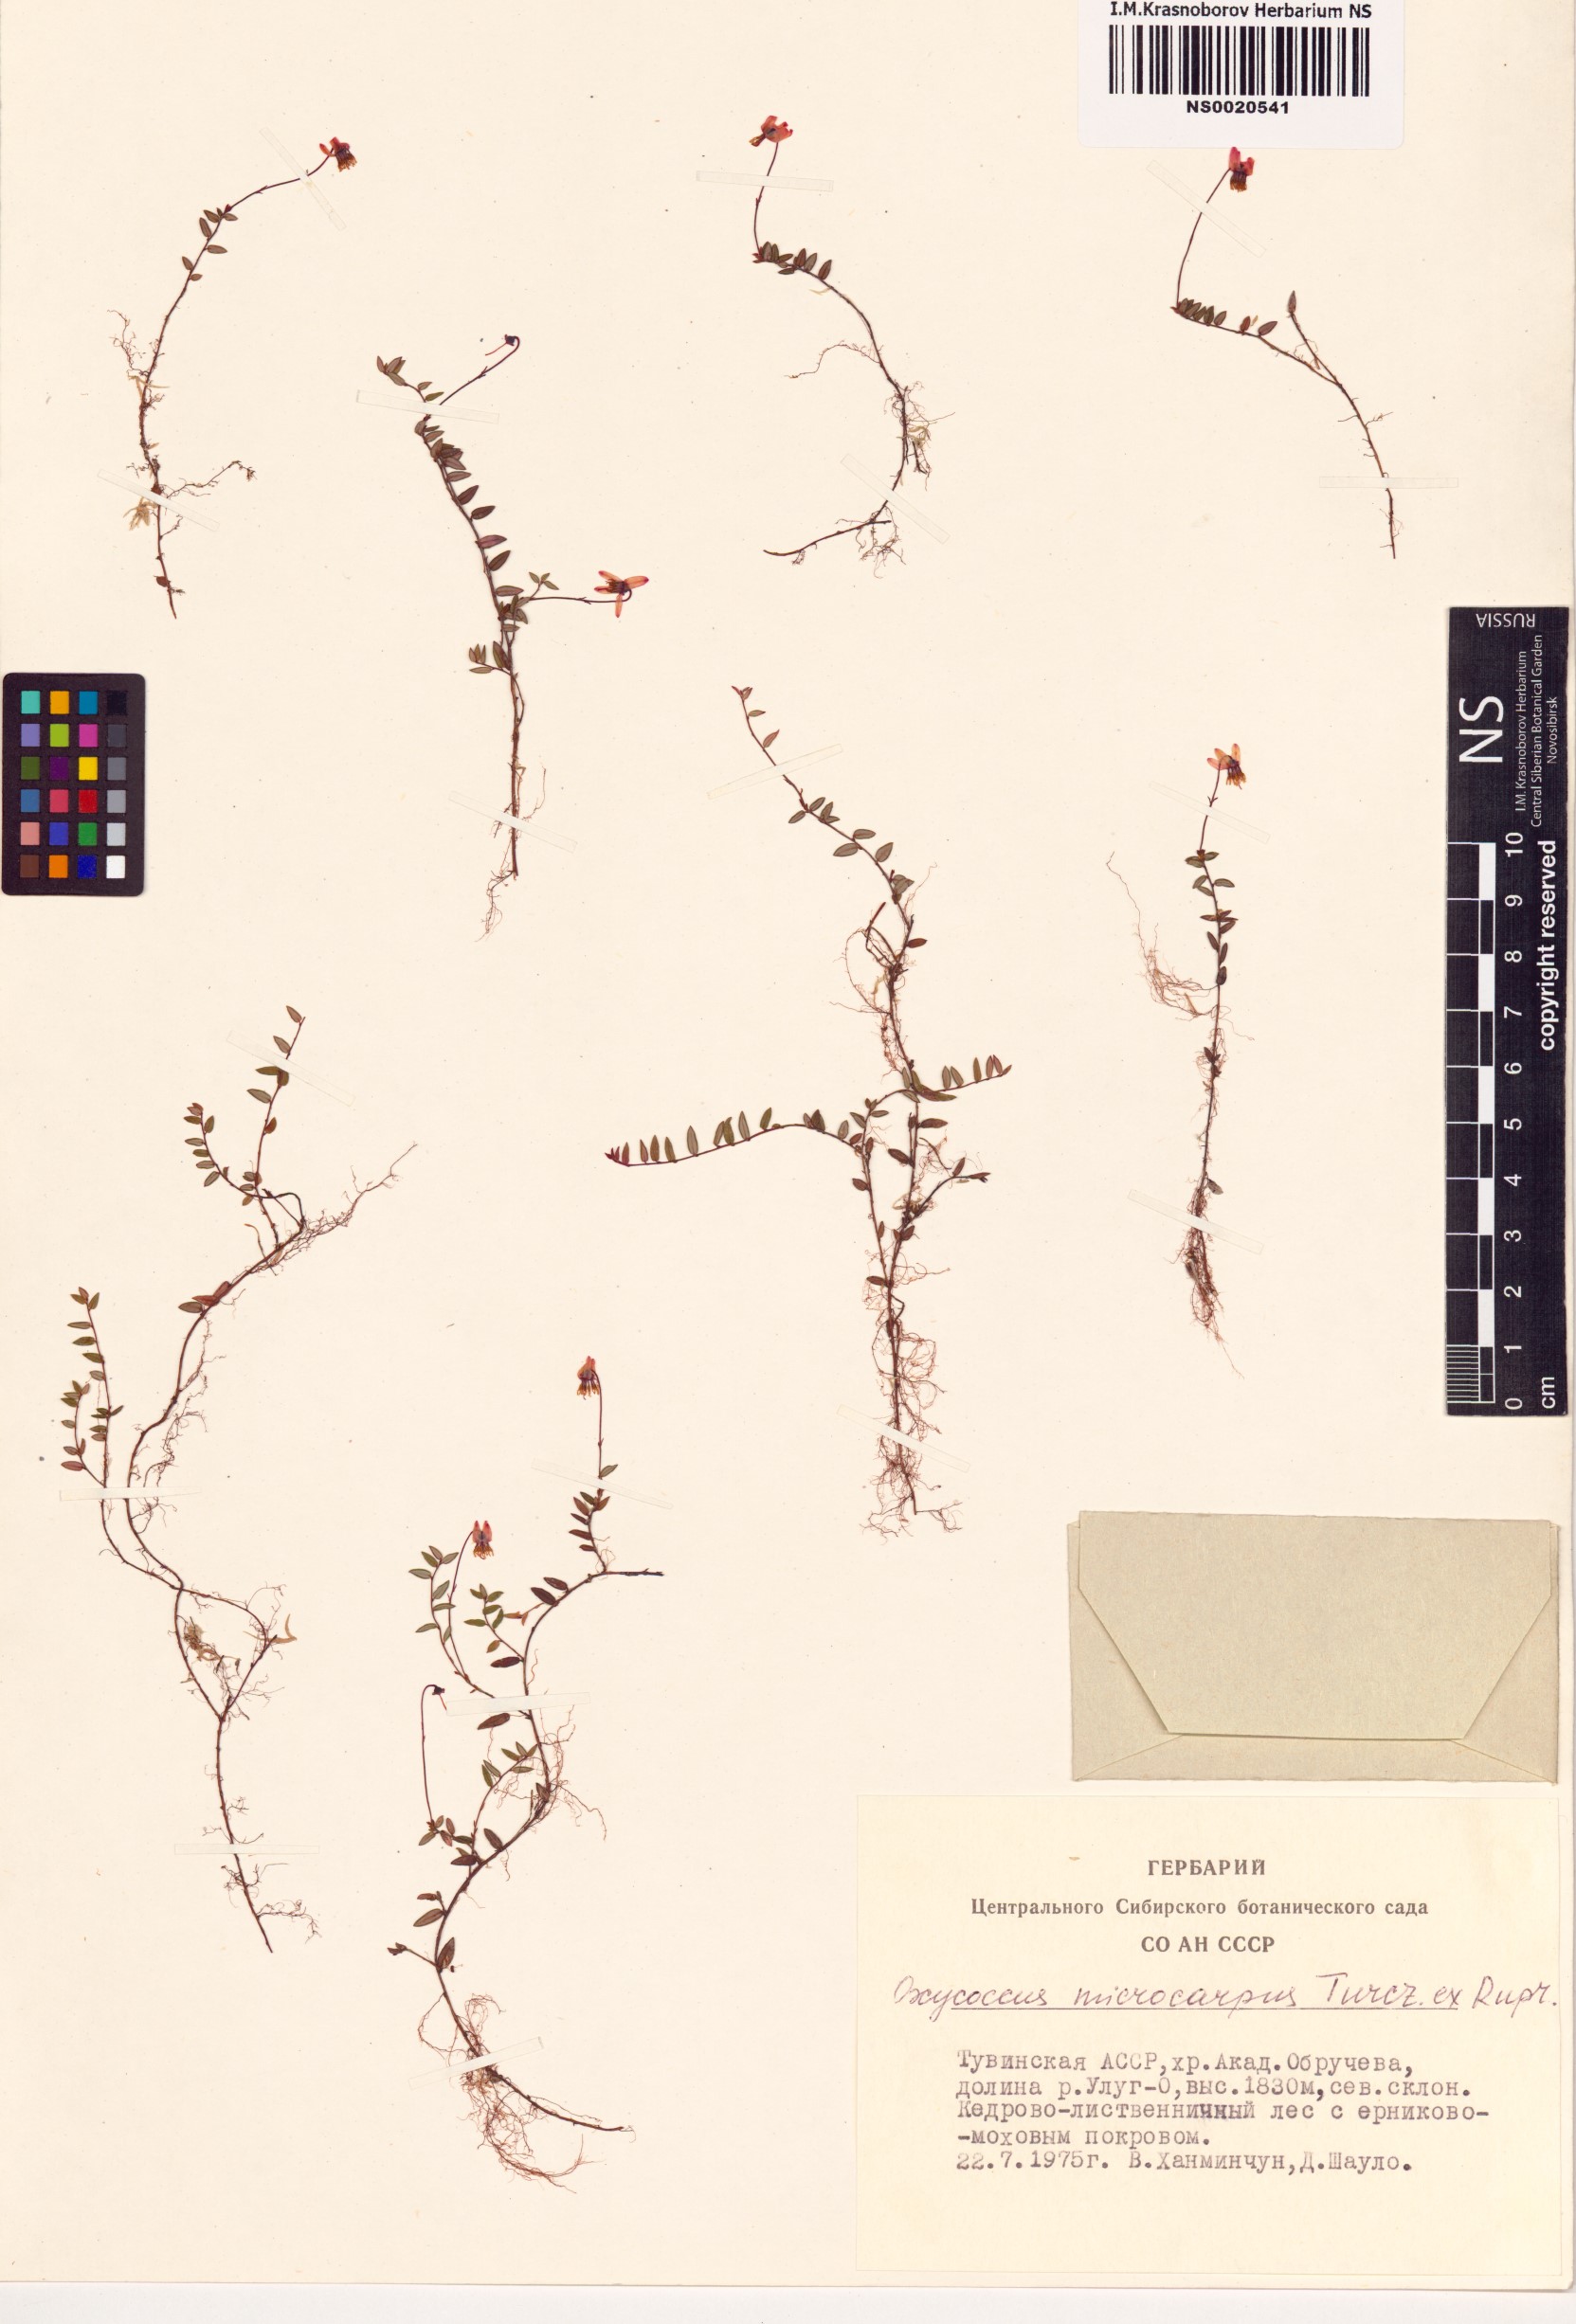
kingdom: Plantae
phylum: Tracheophyta
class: Magnoliopsida
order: Ericales
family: Ericaceae
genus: Vaccinium
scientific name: Vaccinium microcarpum
